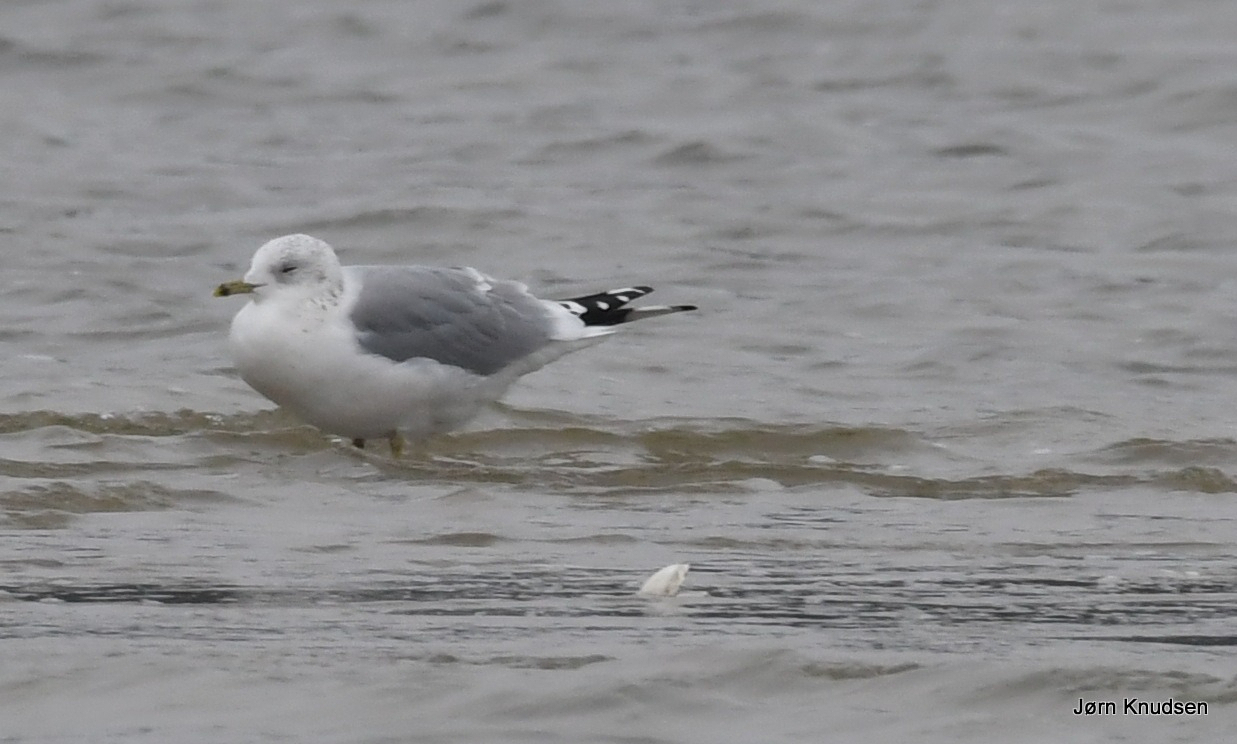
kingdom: Animalia
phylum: Chordata
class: Aves
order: Charadriiformes
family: Laridae
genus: Larus
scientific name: Larus canus
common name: Stormmåge
